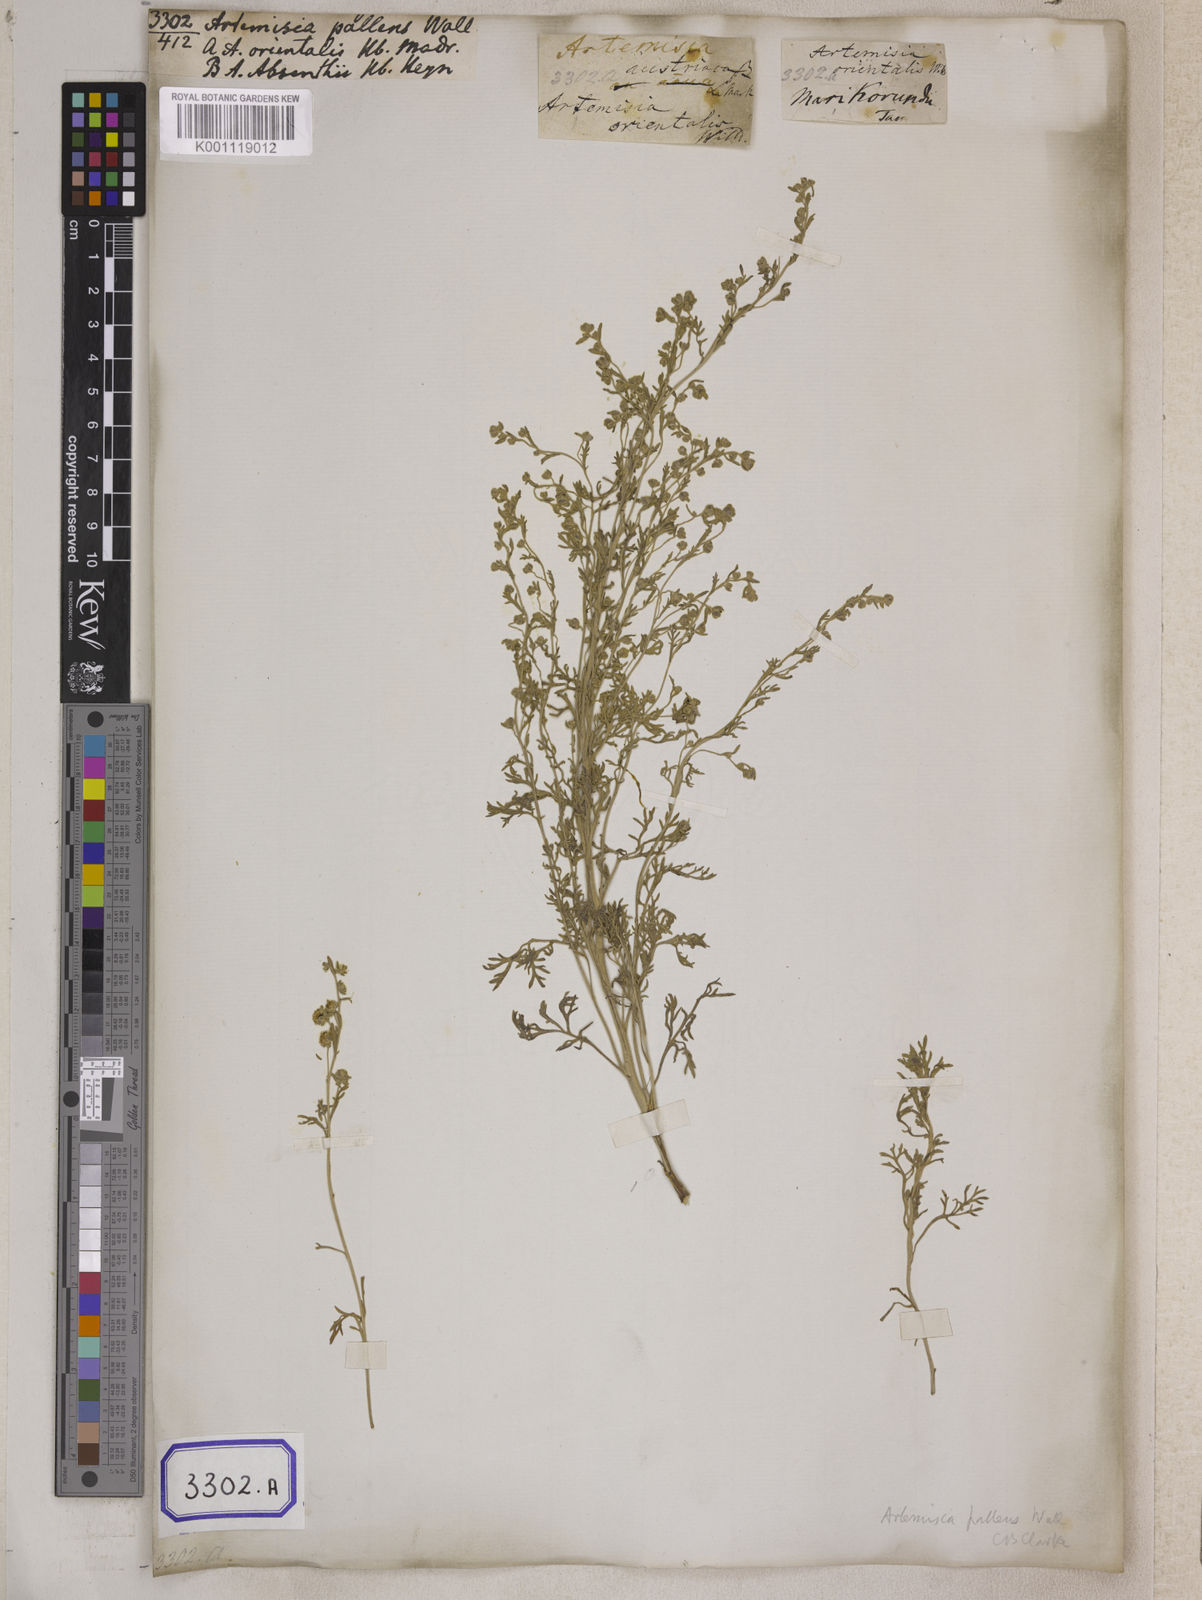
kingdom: Plantae
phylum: Tracheophyta
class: Magnoliopsida
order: Asterales
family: Asteraceae
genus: Artemisia
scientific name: Artemisia
